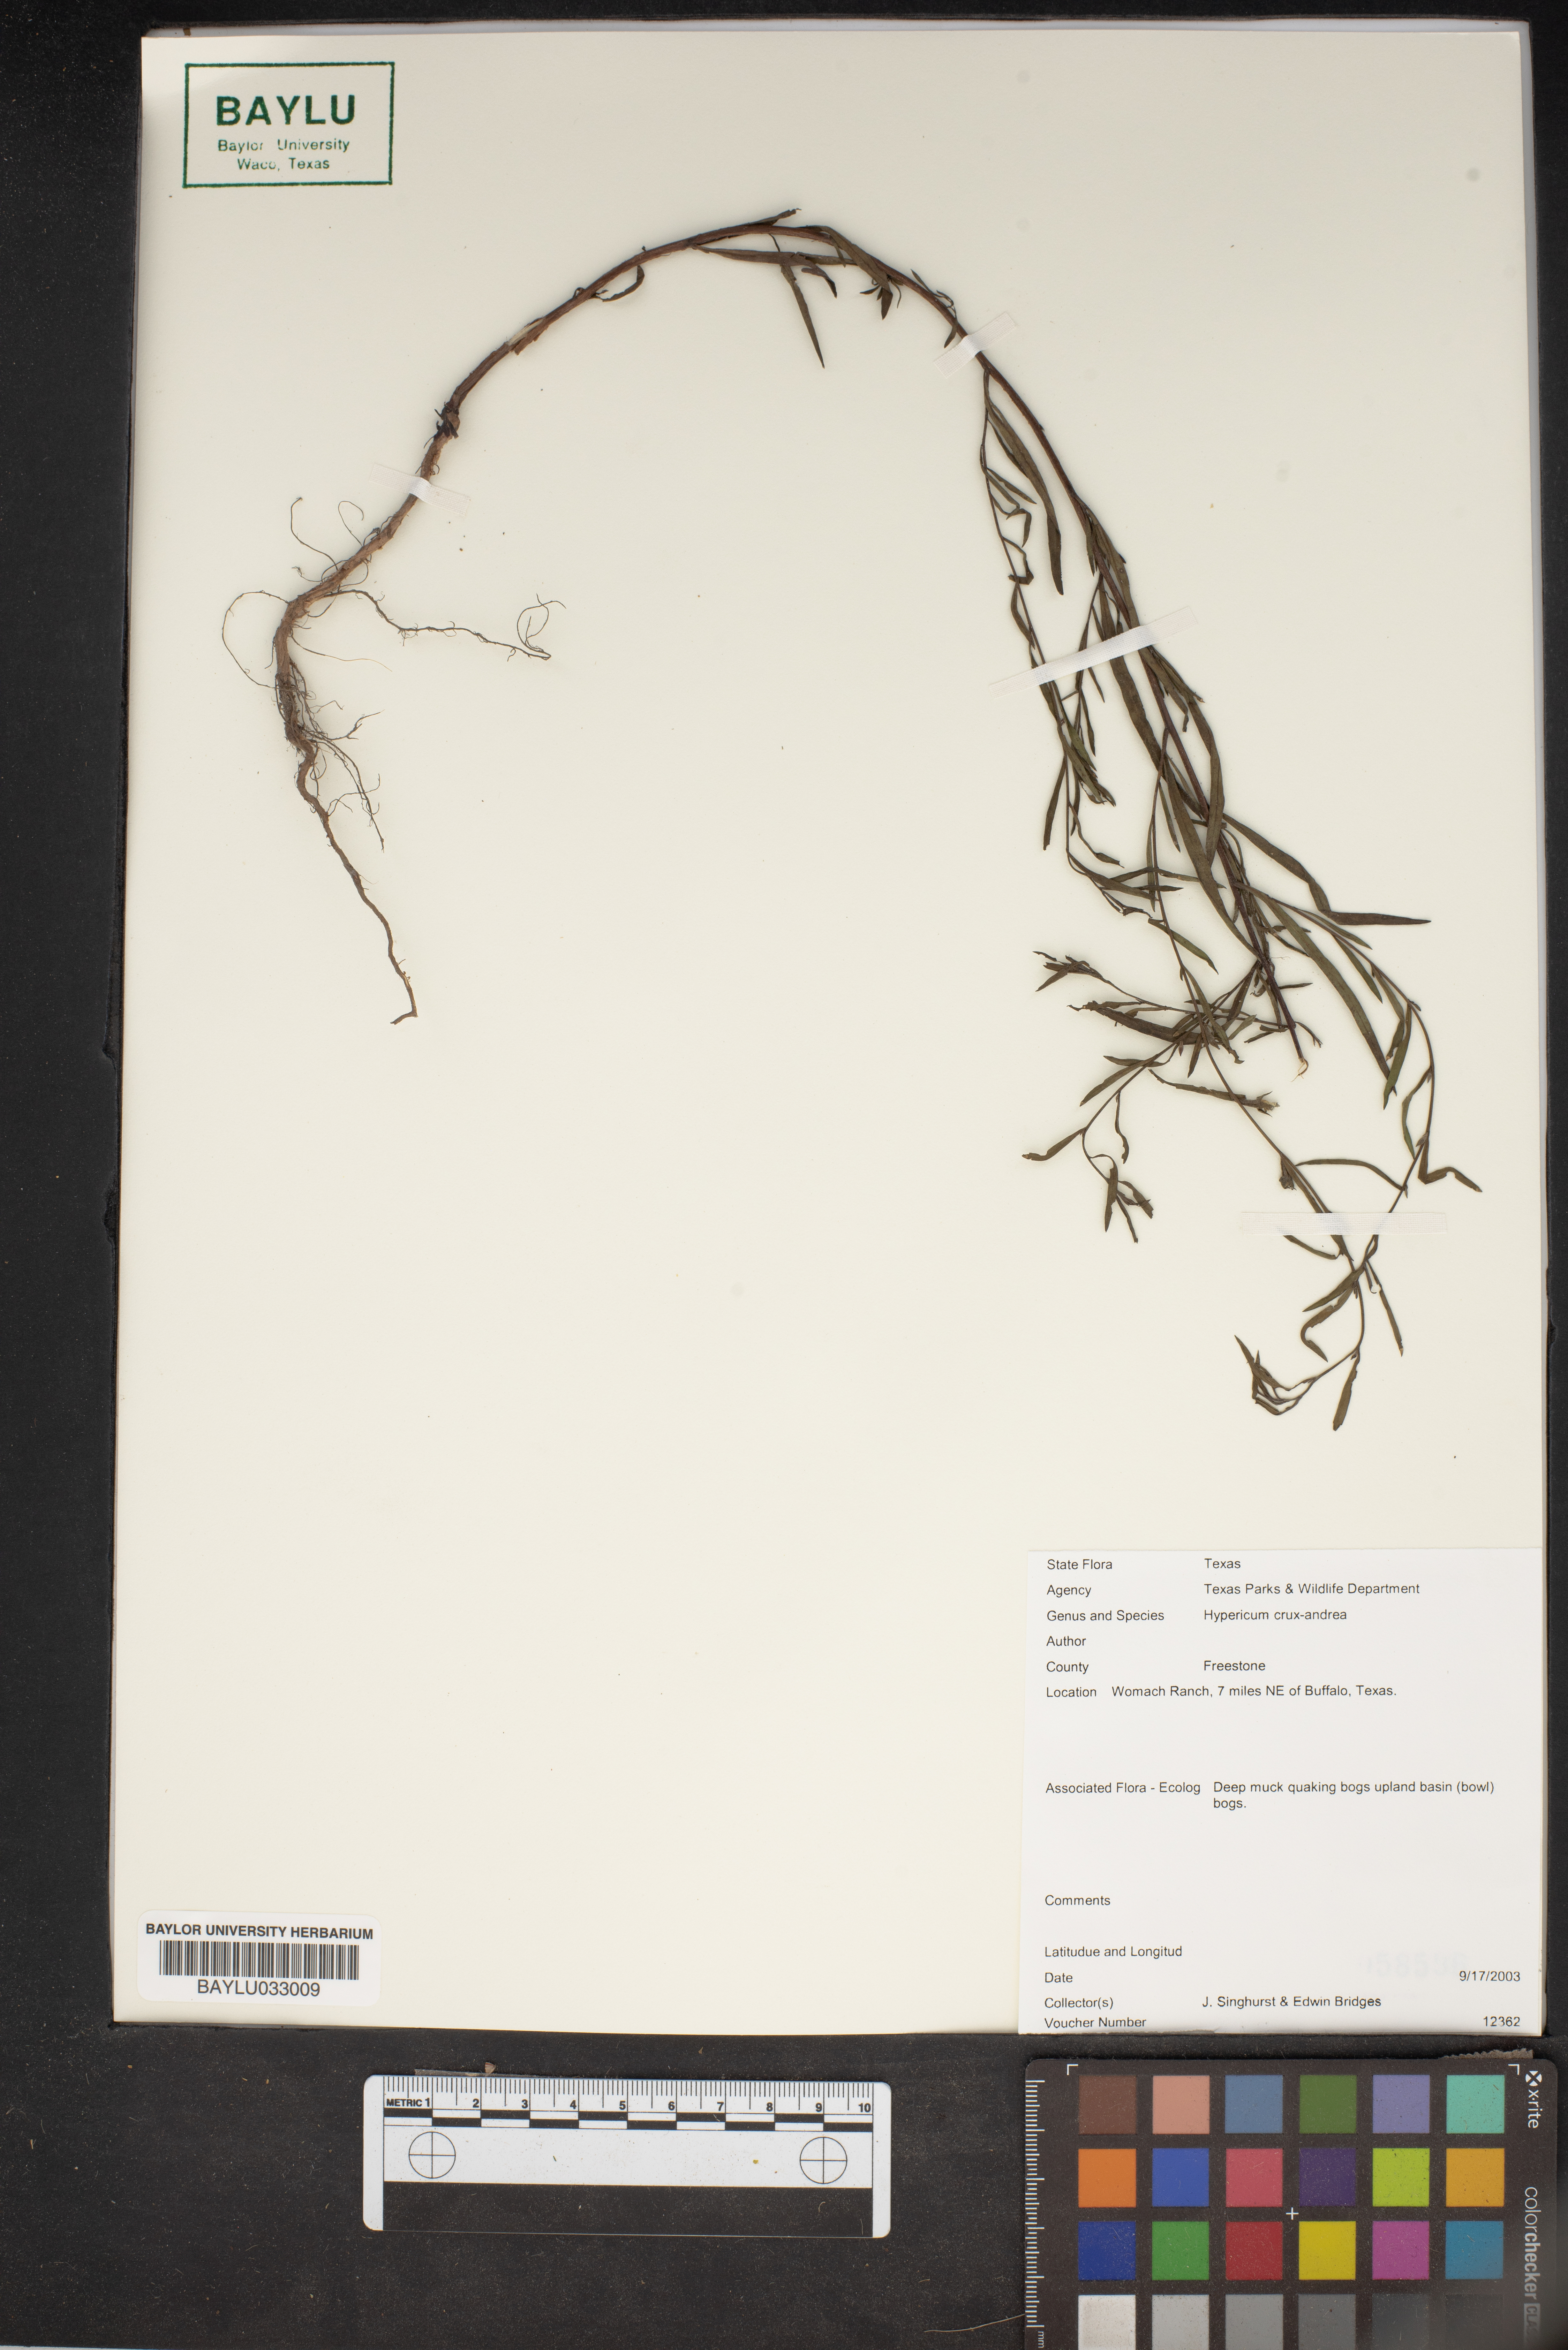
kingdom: Plantae
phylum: Tracheophyta
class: Magnoliopsida
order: Malpighiales
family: Hypericaceae
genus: Hypericum
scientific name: Hypericum crux-andreae
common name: St.-peter's-wort
